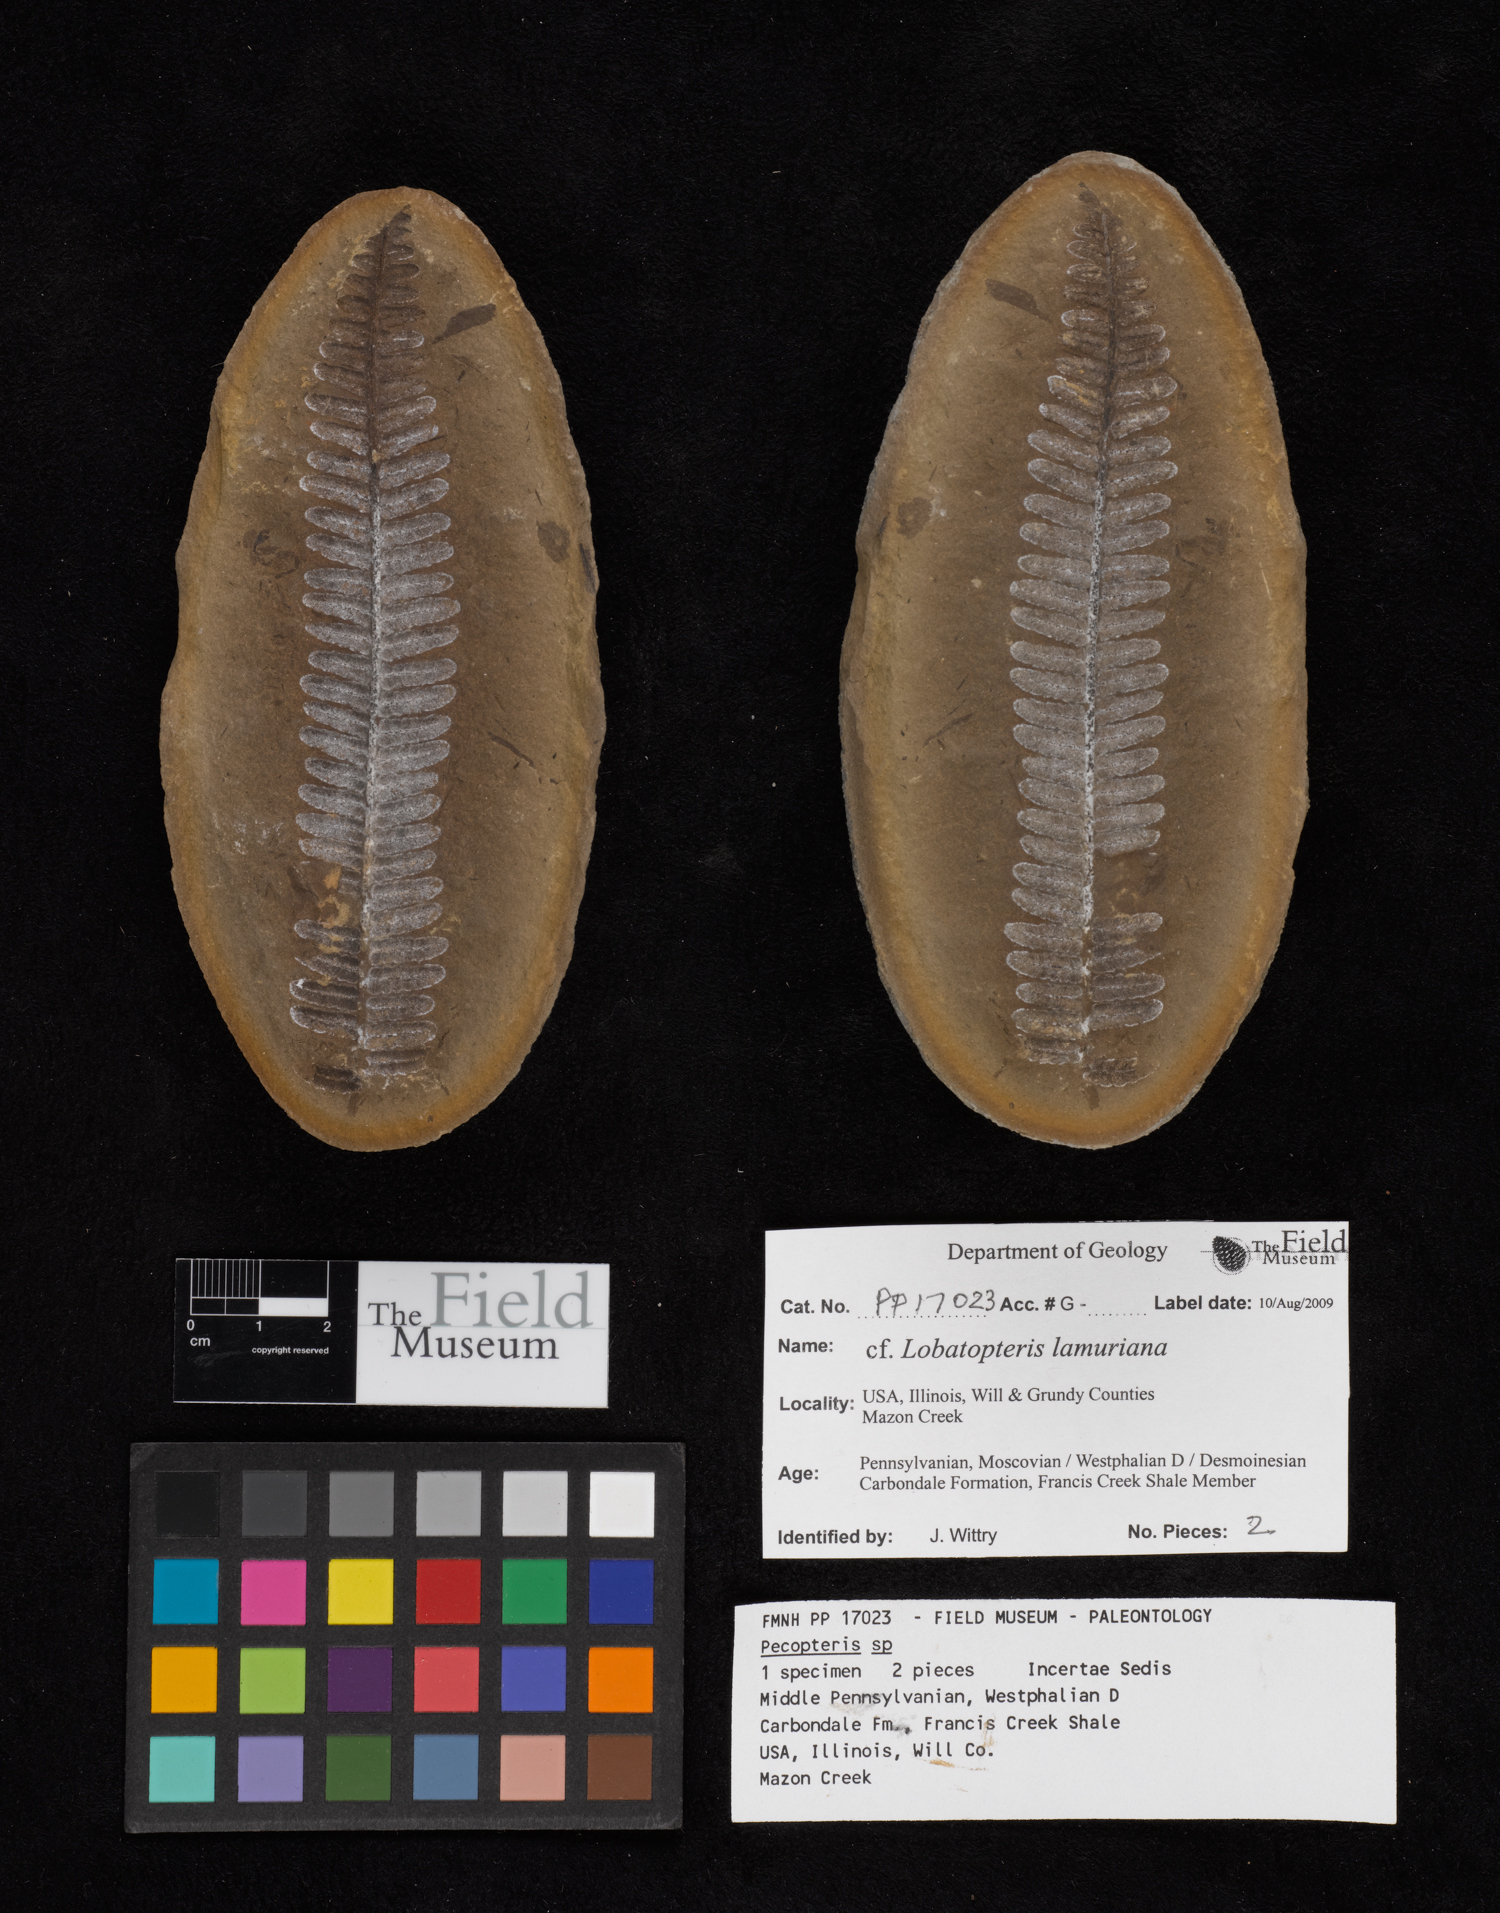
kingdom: Plantae
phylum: Tracheophyta
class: Polypodiopsida
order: Marattiales
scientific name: Marattiales
